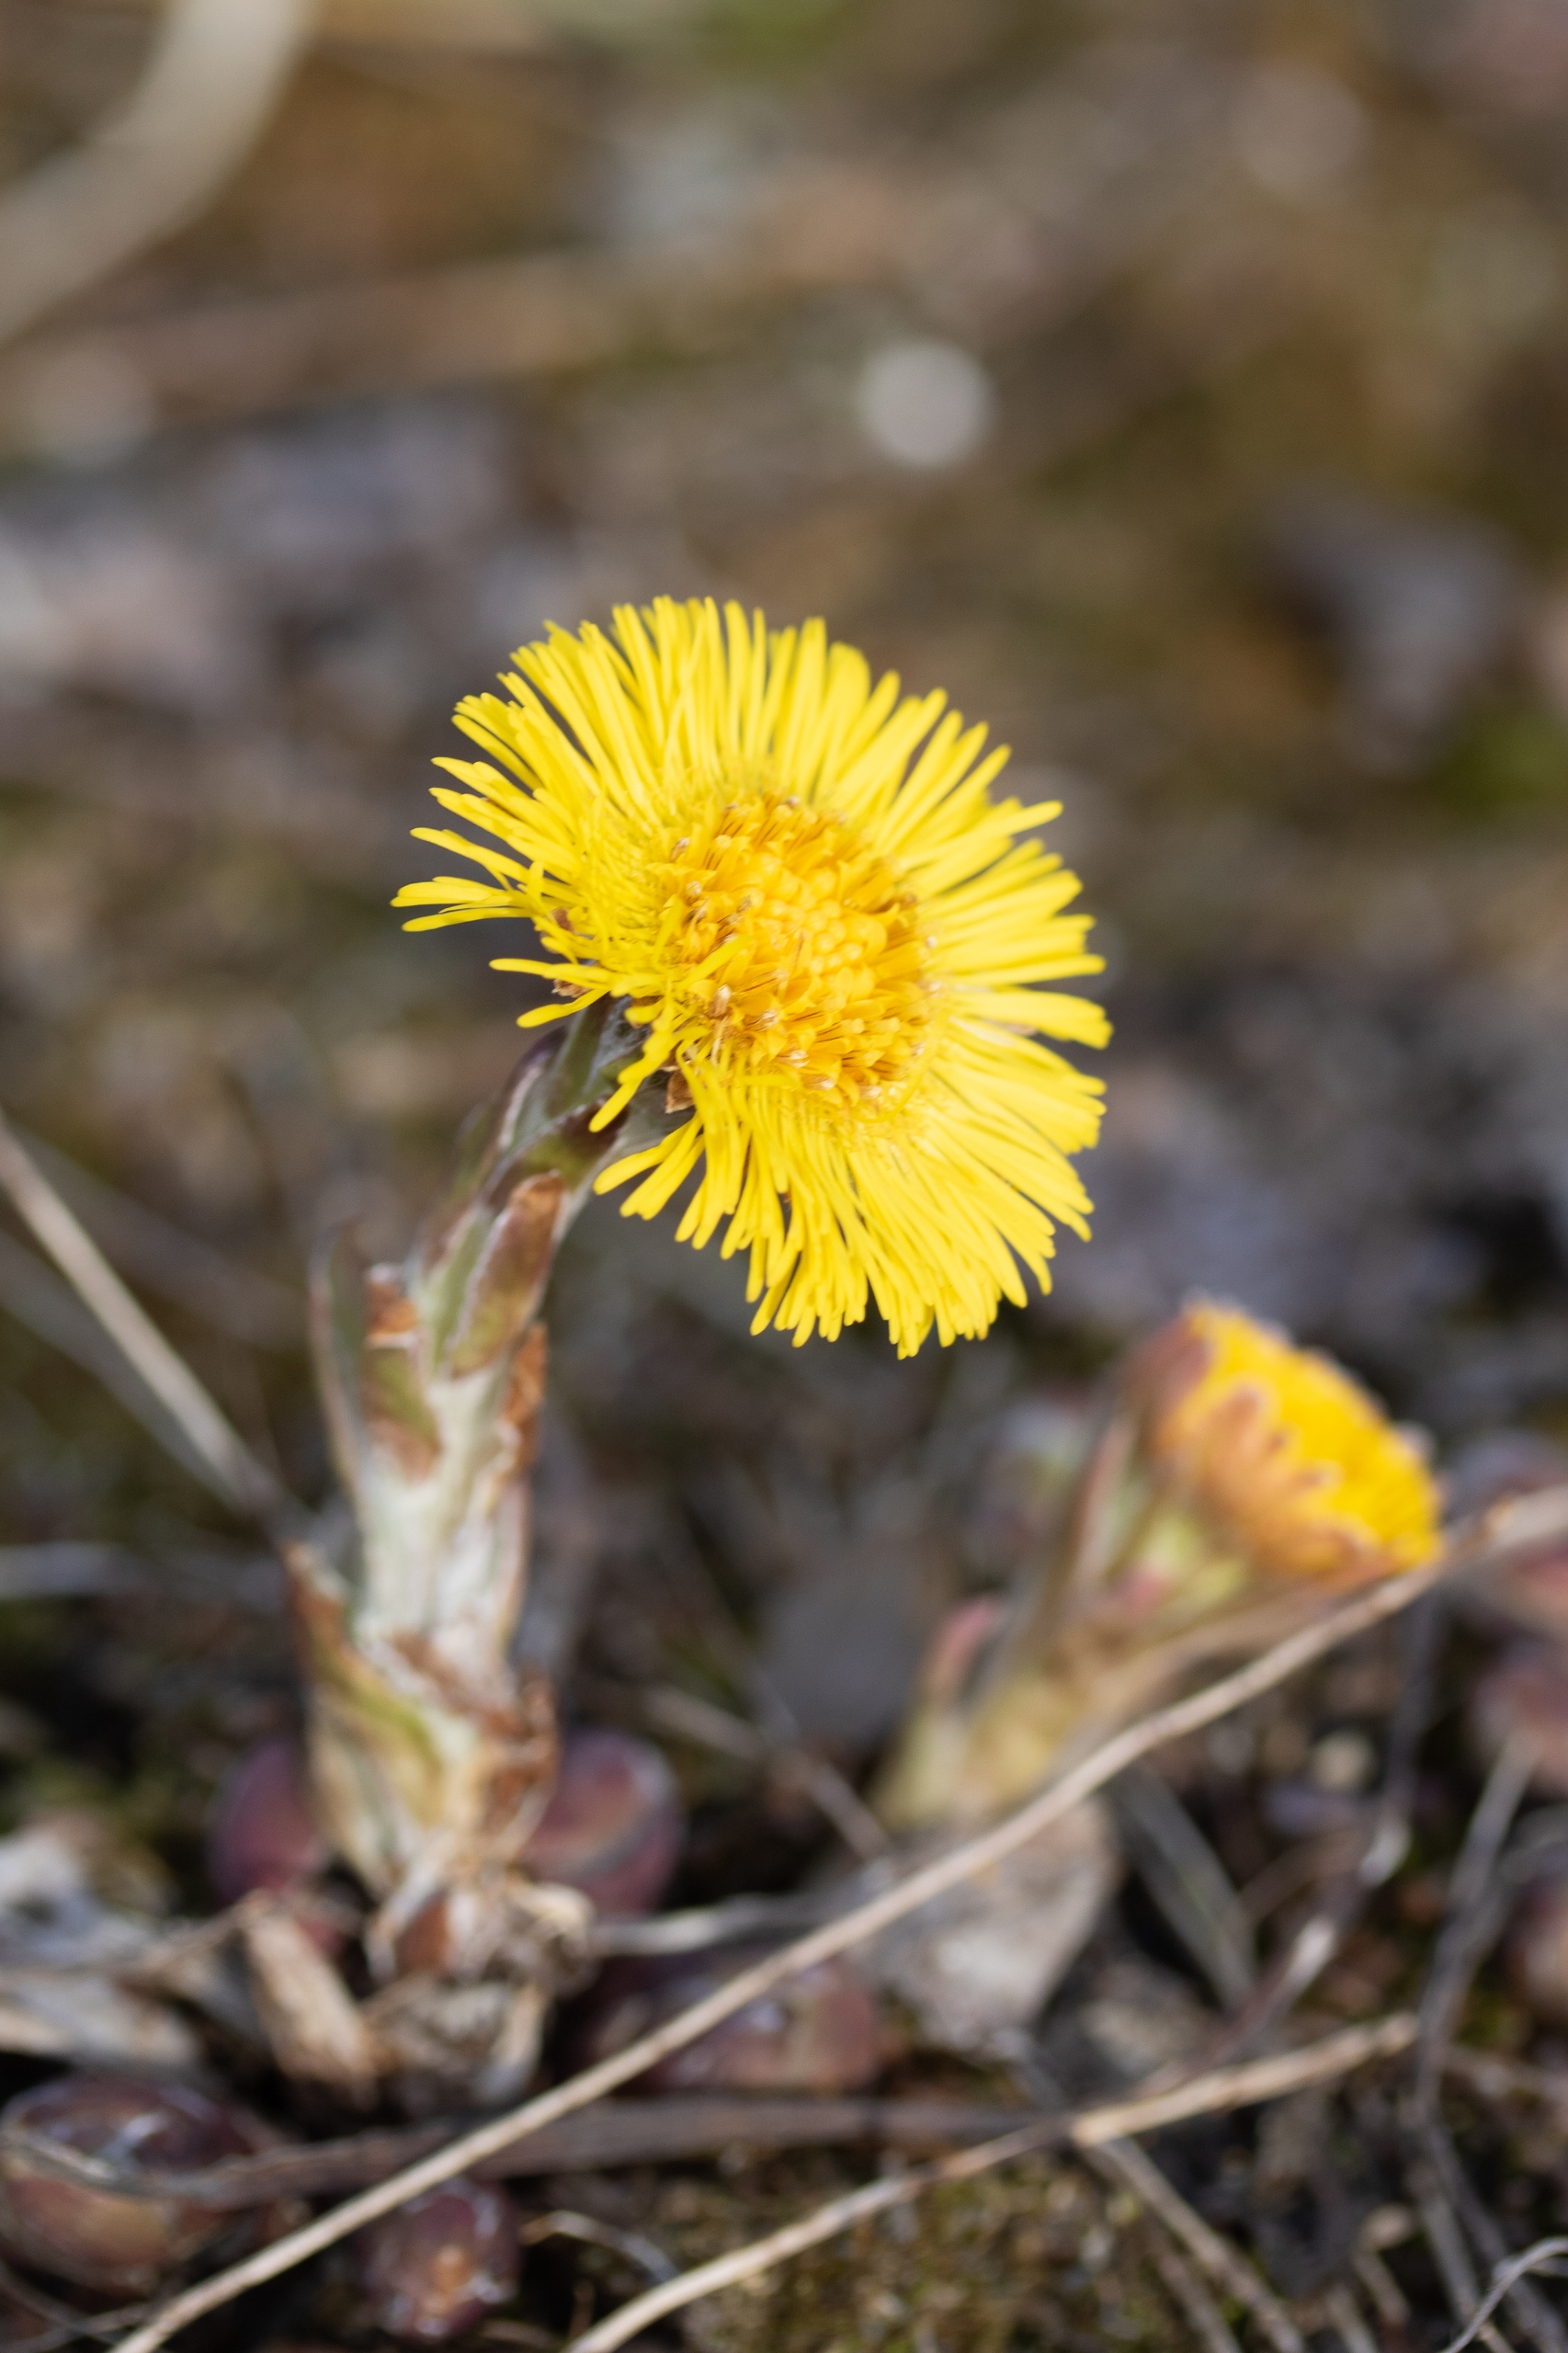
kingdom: Plantae
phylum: Tracheophyta
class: Magnoliopsida
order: Asterales
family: Asteraceae
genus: Tussilago
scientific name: Tussilago farfara
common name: Følfod
